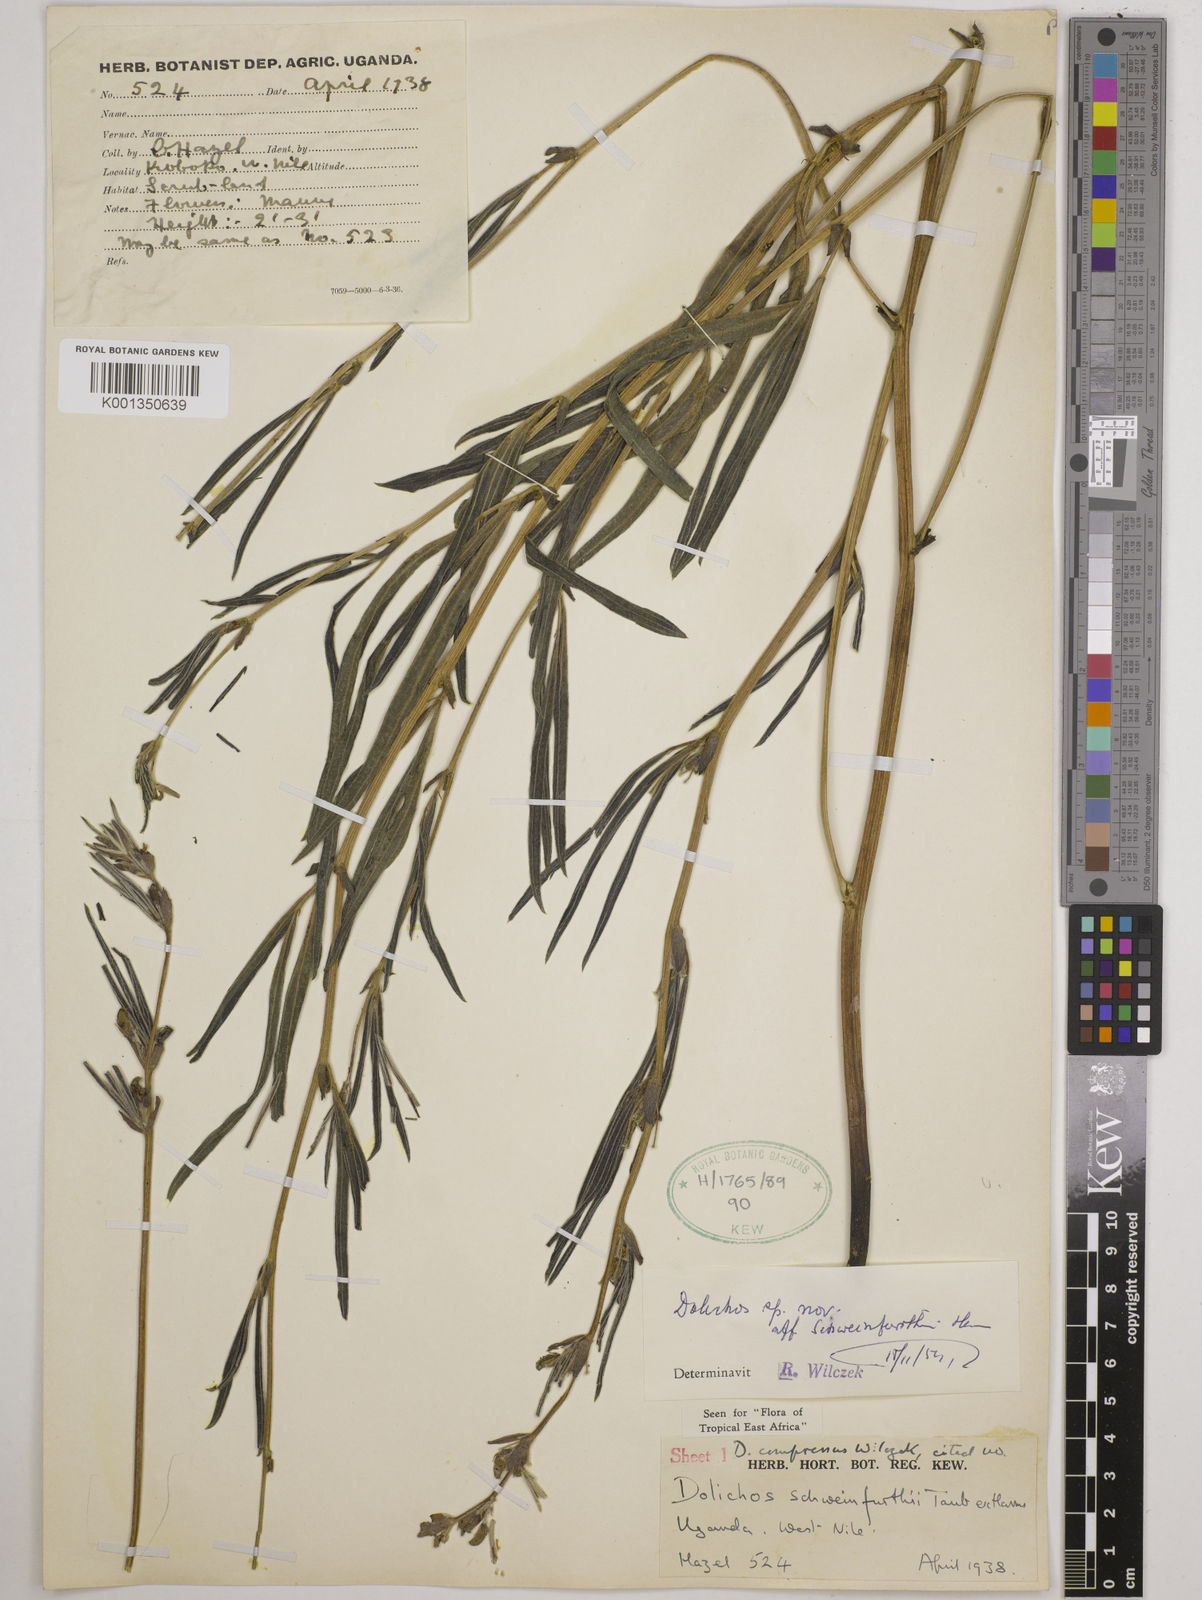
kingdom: Plantae
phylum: Tracheophyta
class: Magnoliopsida
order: Fabales
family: Fabaceae
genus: Dolichos
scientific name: Dolichos compressus
